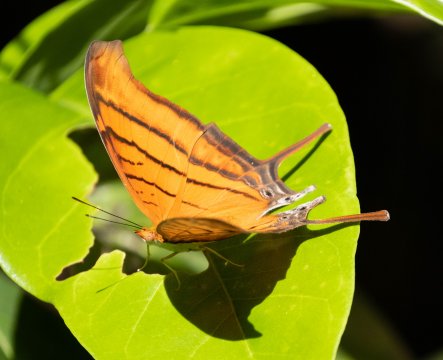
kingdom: Animalia
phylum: Arthropoda
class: Insecta
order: Lepidoptera
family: Nymphalidae
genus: Marpesia
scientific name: Marpesia petreus
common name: Ruddy Daggerwing
